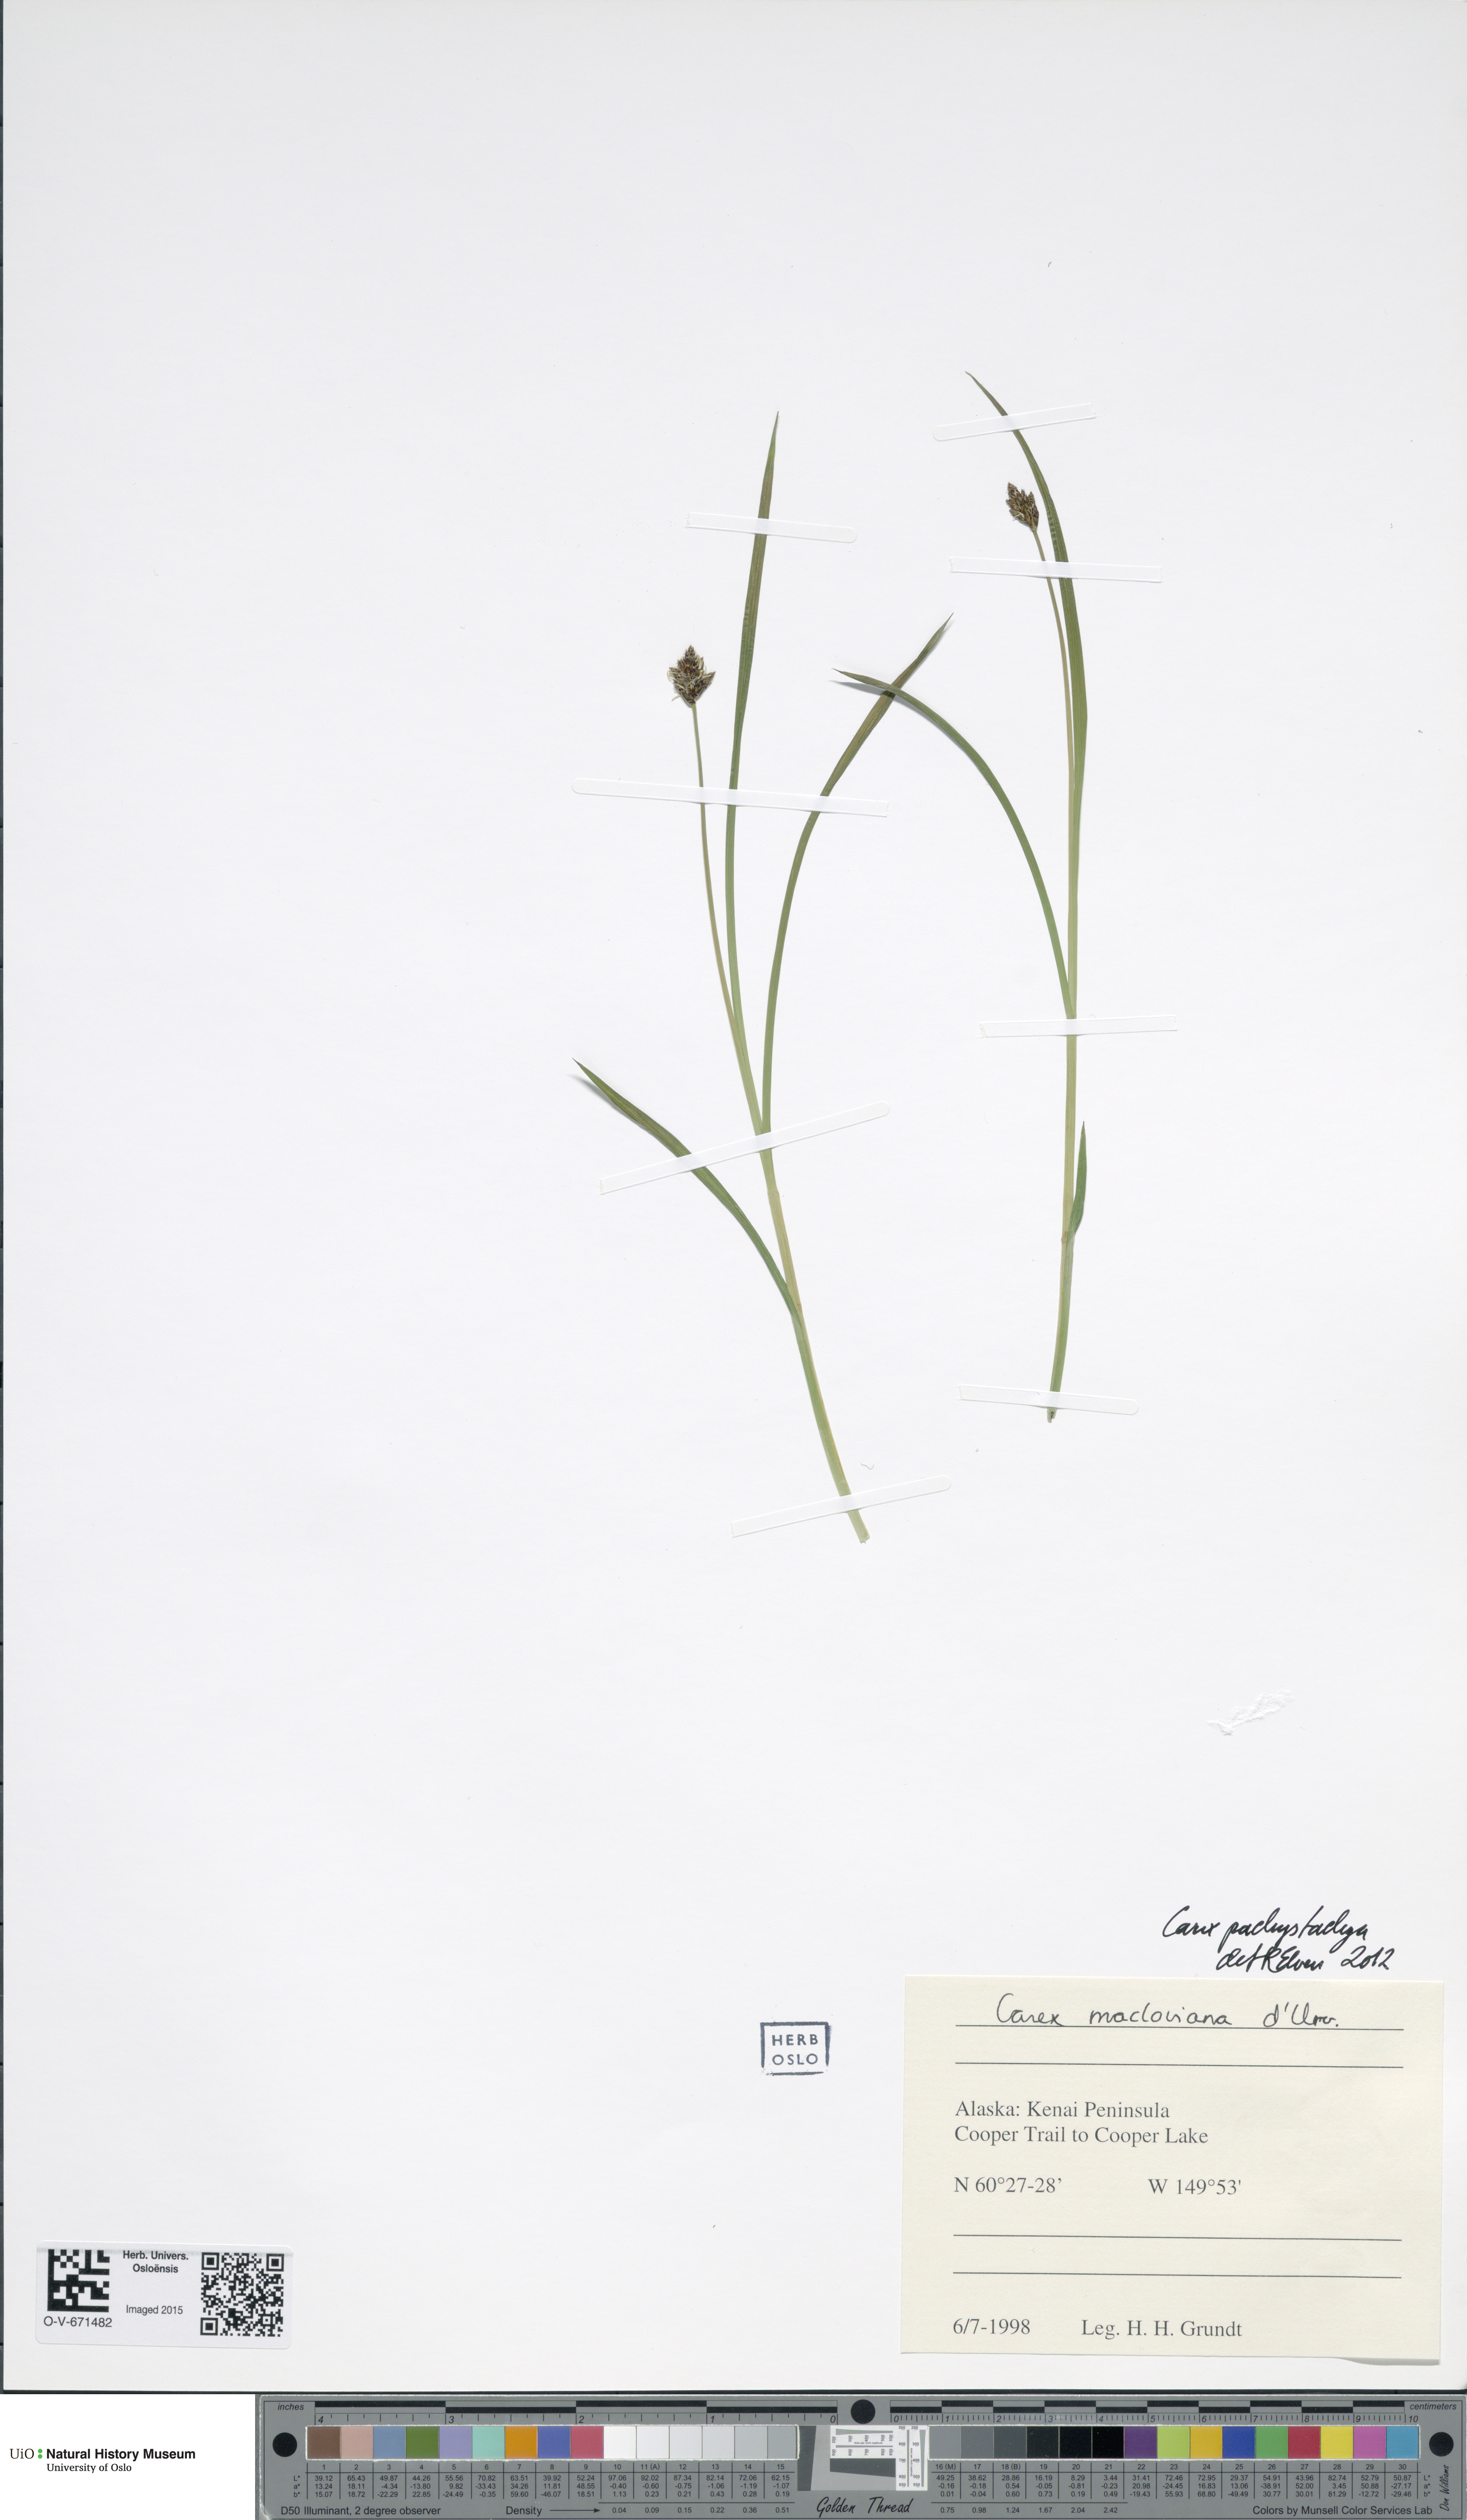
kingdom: Plantae
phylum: Tracheophyta
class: Liliopsida
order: Poales
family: Cyperaceae
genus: Carex
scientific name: Carex macloviana
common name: Falkland island sedge
